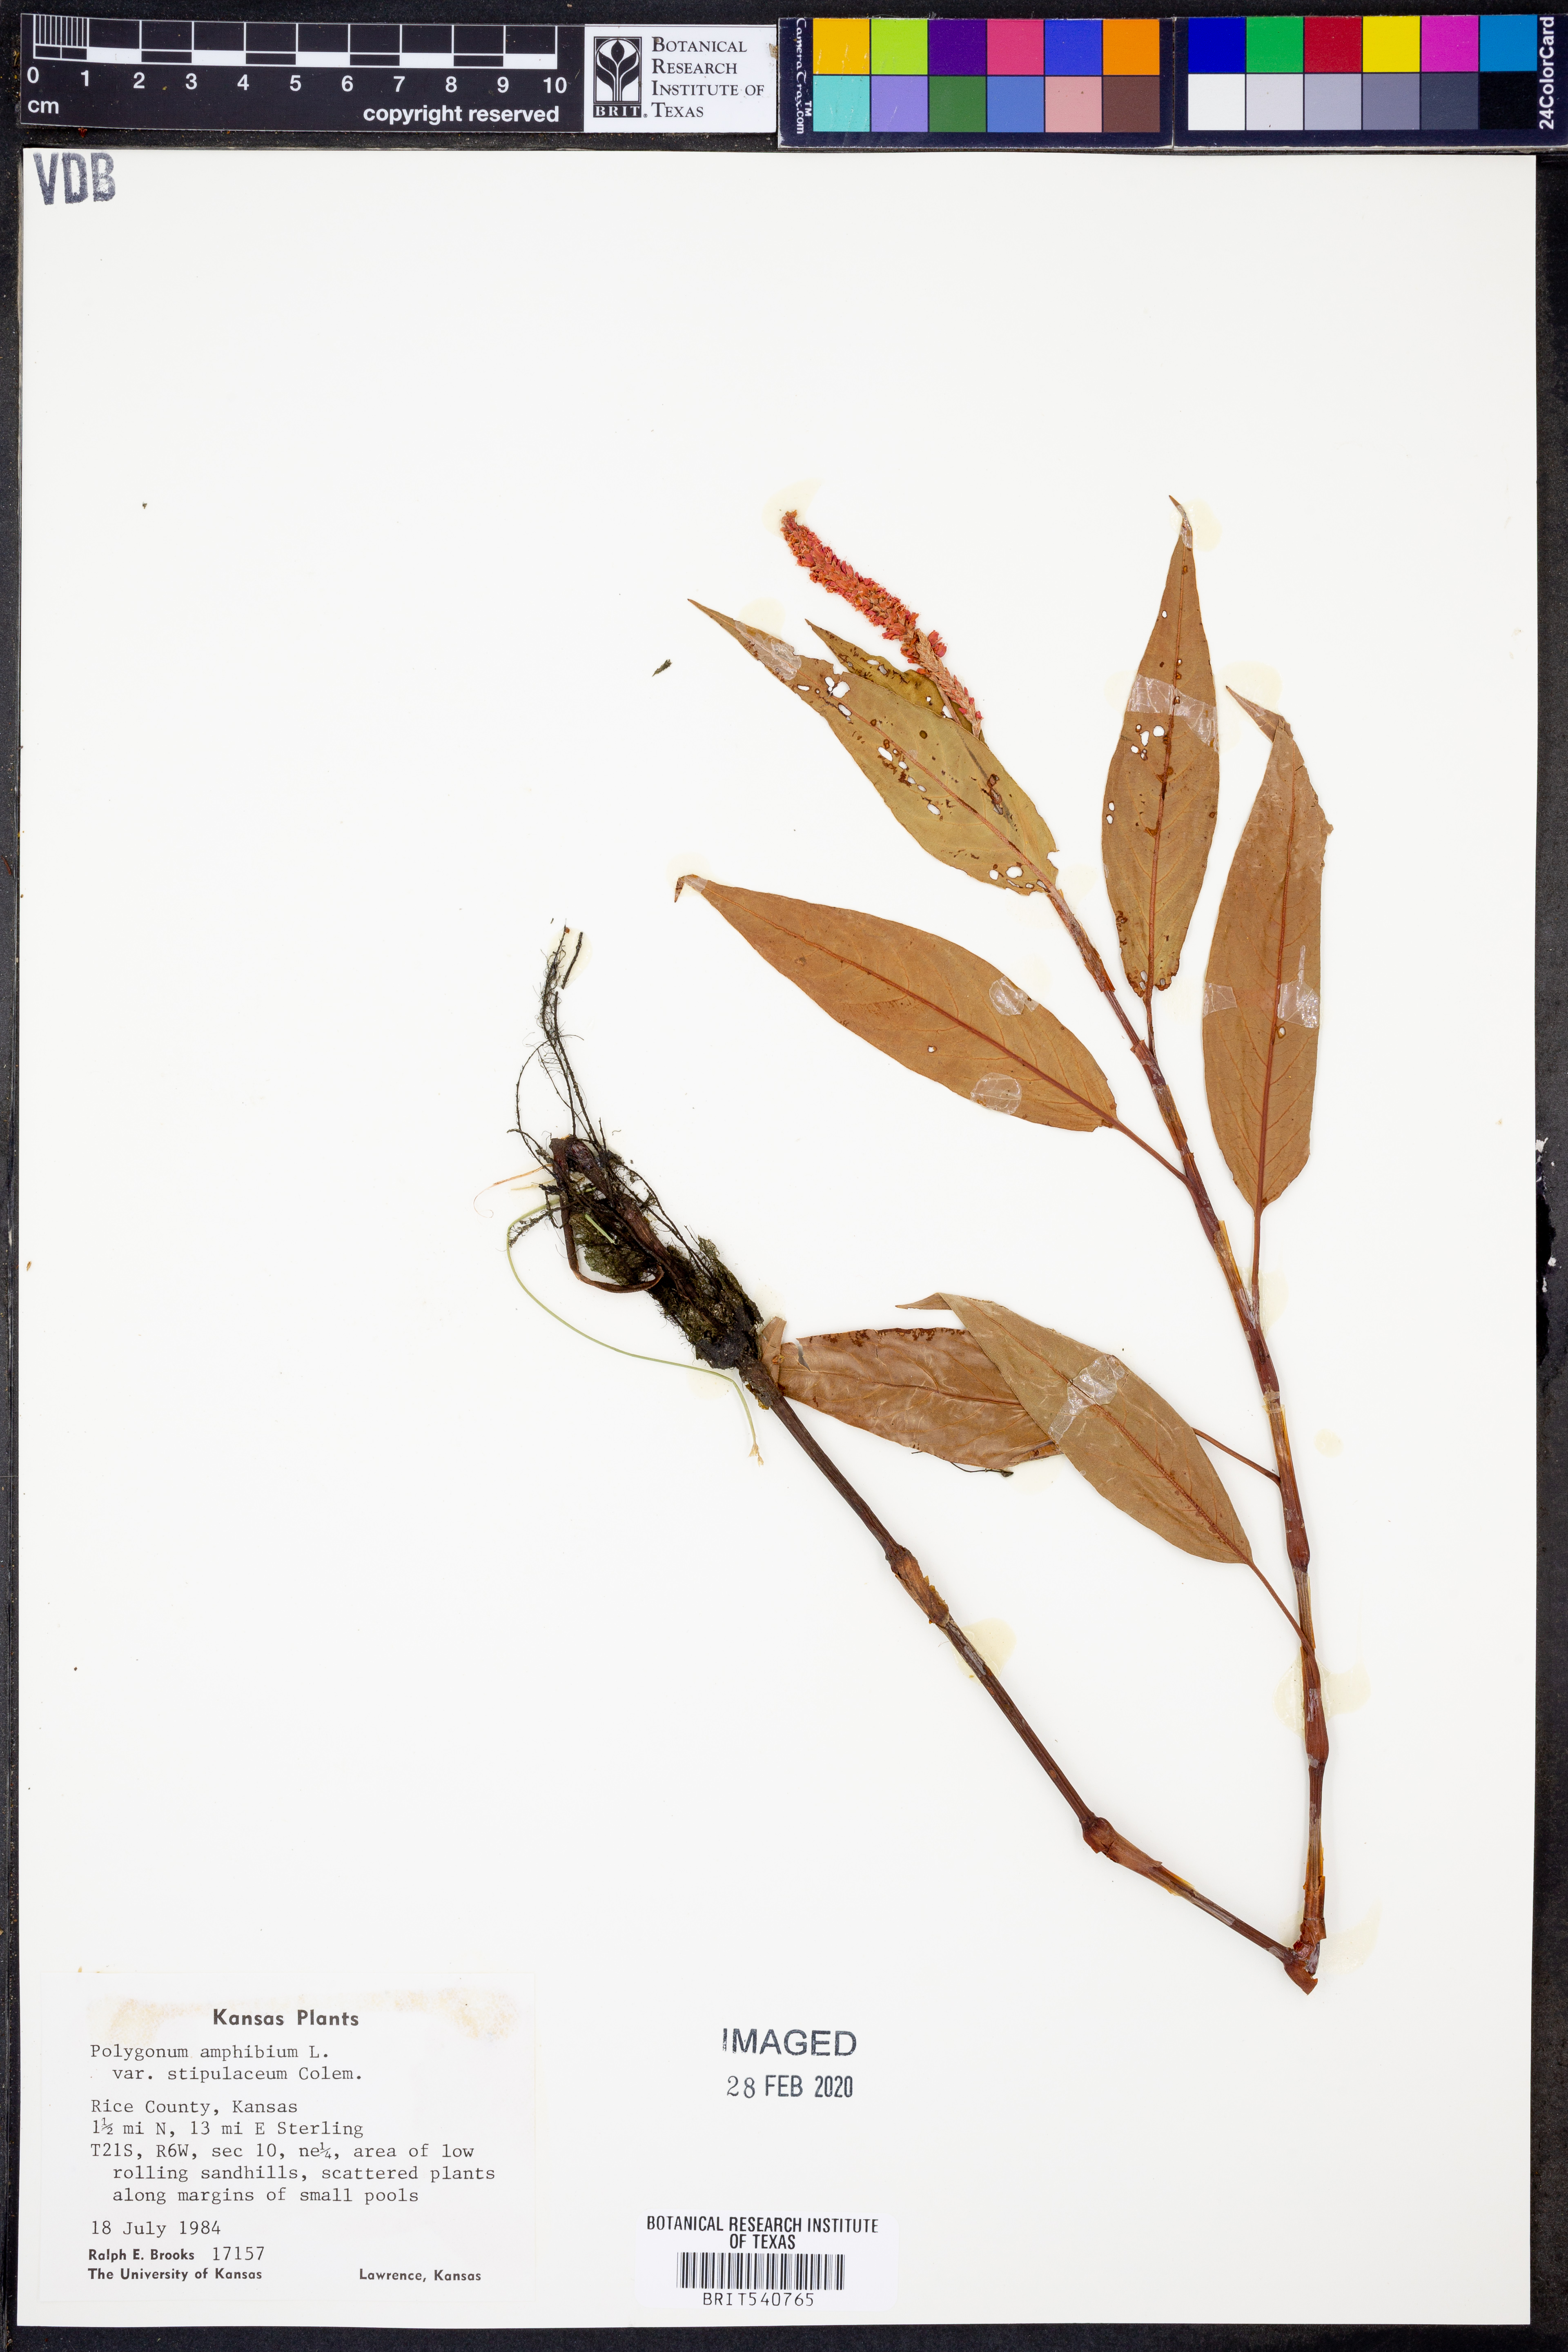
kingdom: Plantae
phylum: Tracheophyta
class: Magnoliopsida
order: Caryophyllales
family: Polygonaceae
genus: Persicaria
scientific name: Persicaria amphibia
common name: Amphibious bistort
